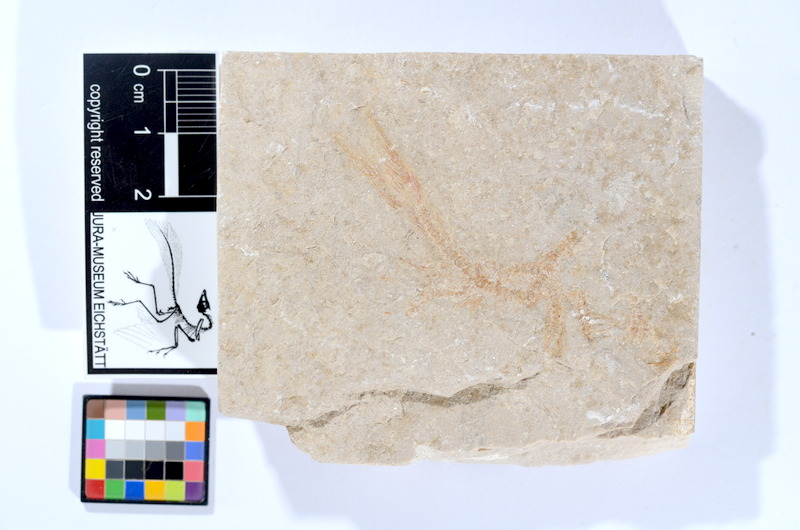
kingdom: Animalia
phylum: Chordata
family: Ascalaboidae
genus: Tharsis
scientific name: Tharsis dubius
